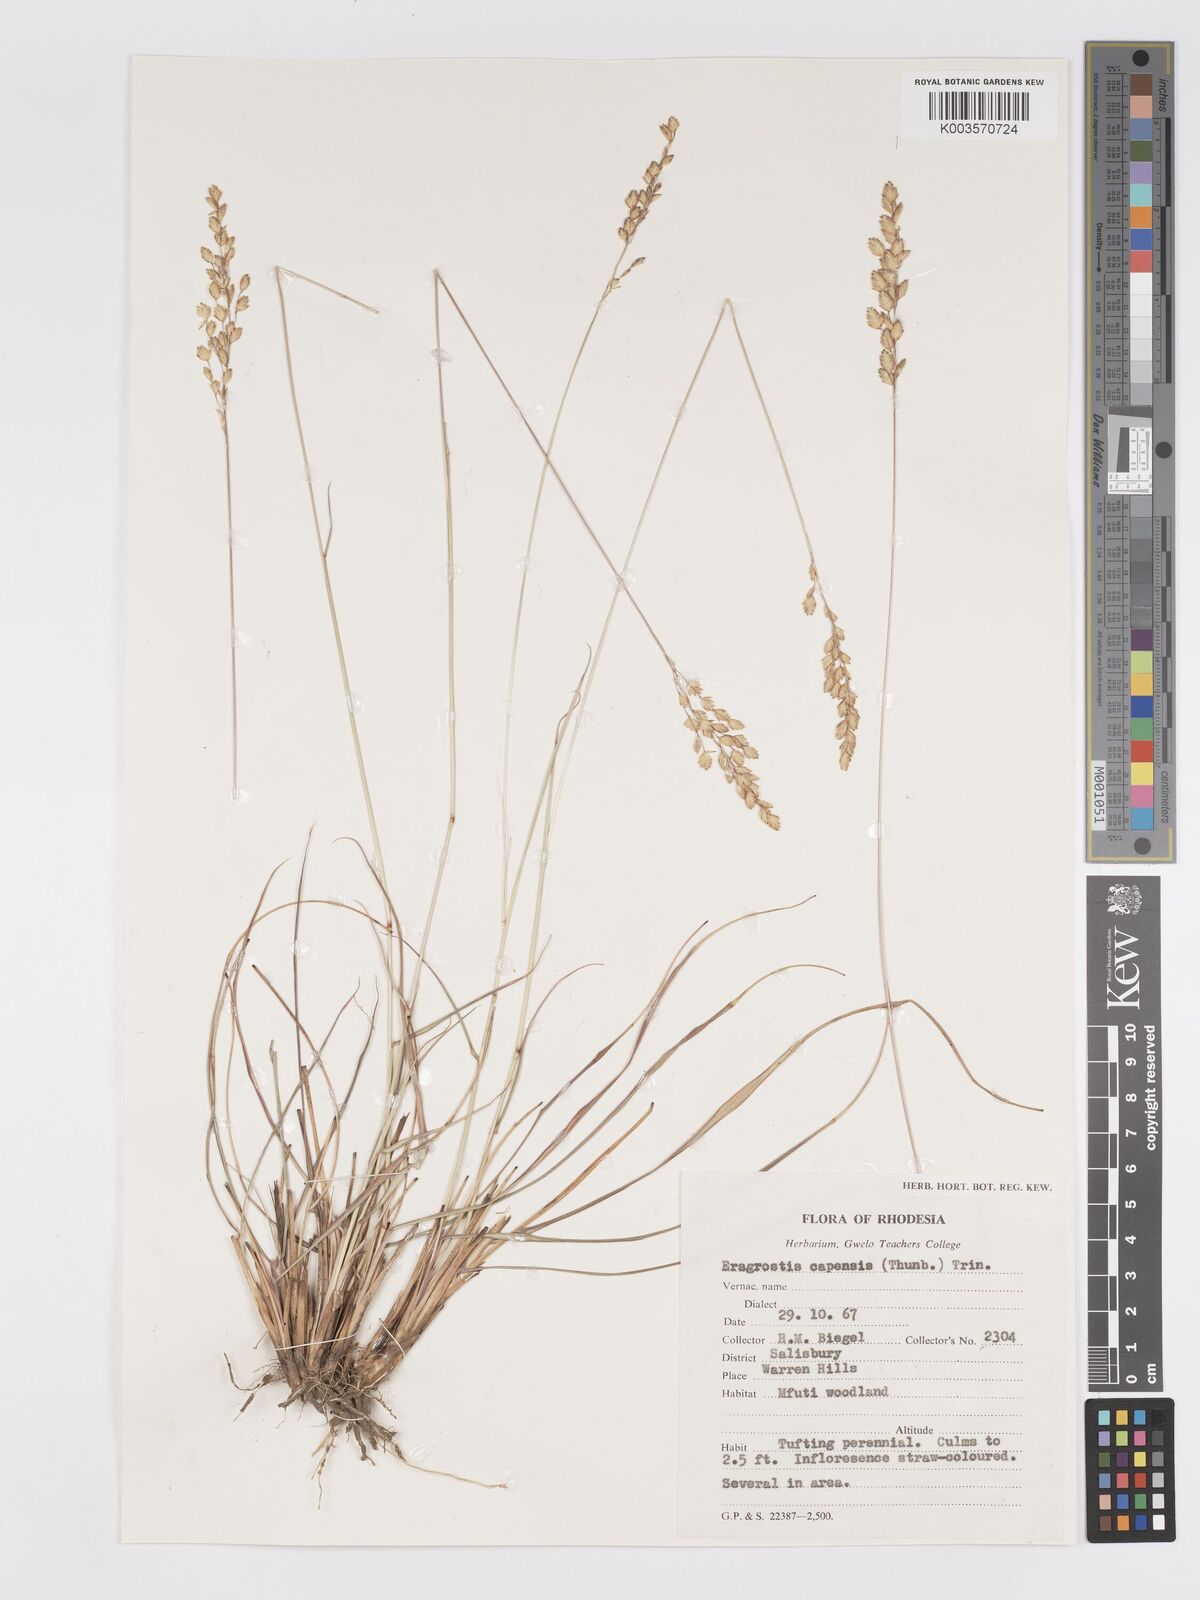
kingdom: Plantae
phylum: Tracheophyta
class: Liliopsida
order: Poales
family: Poaceae
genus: Eragrostis
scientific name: Eragrostis capensis
